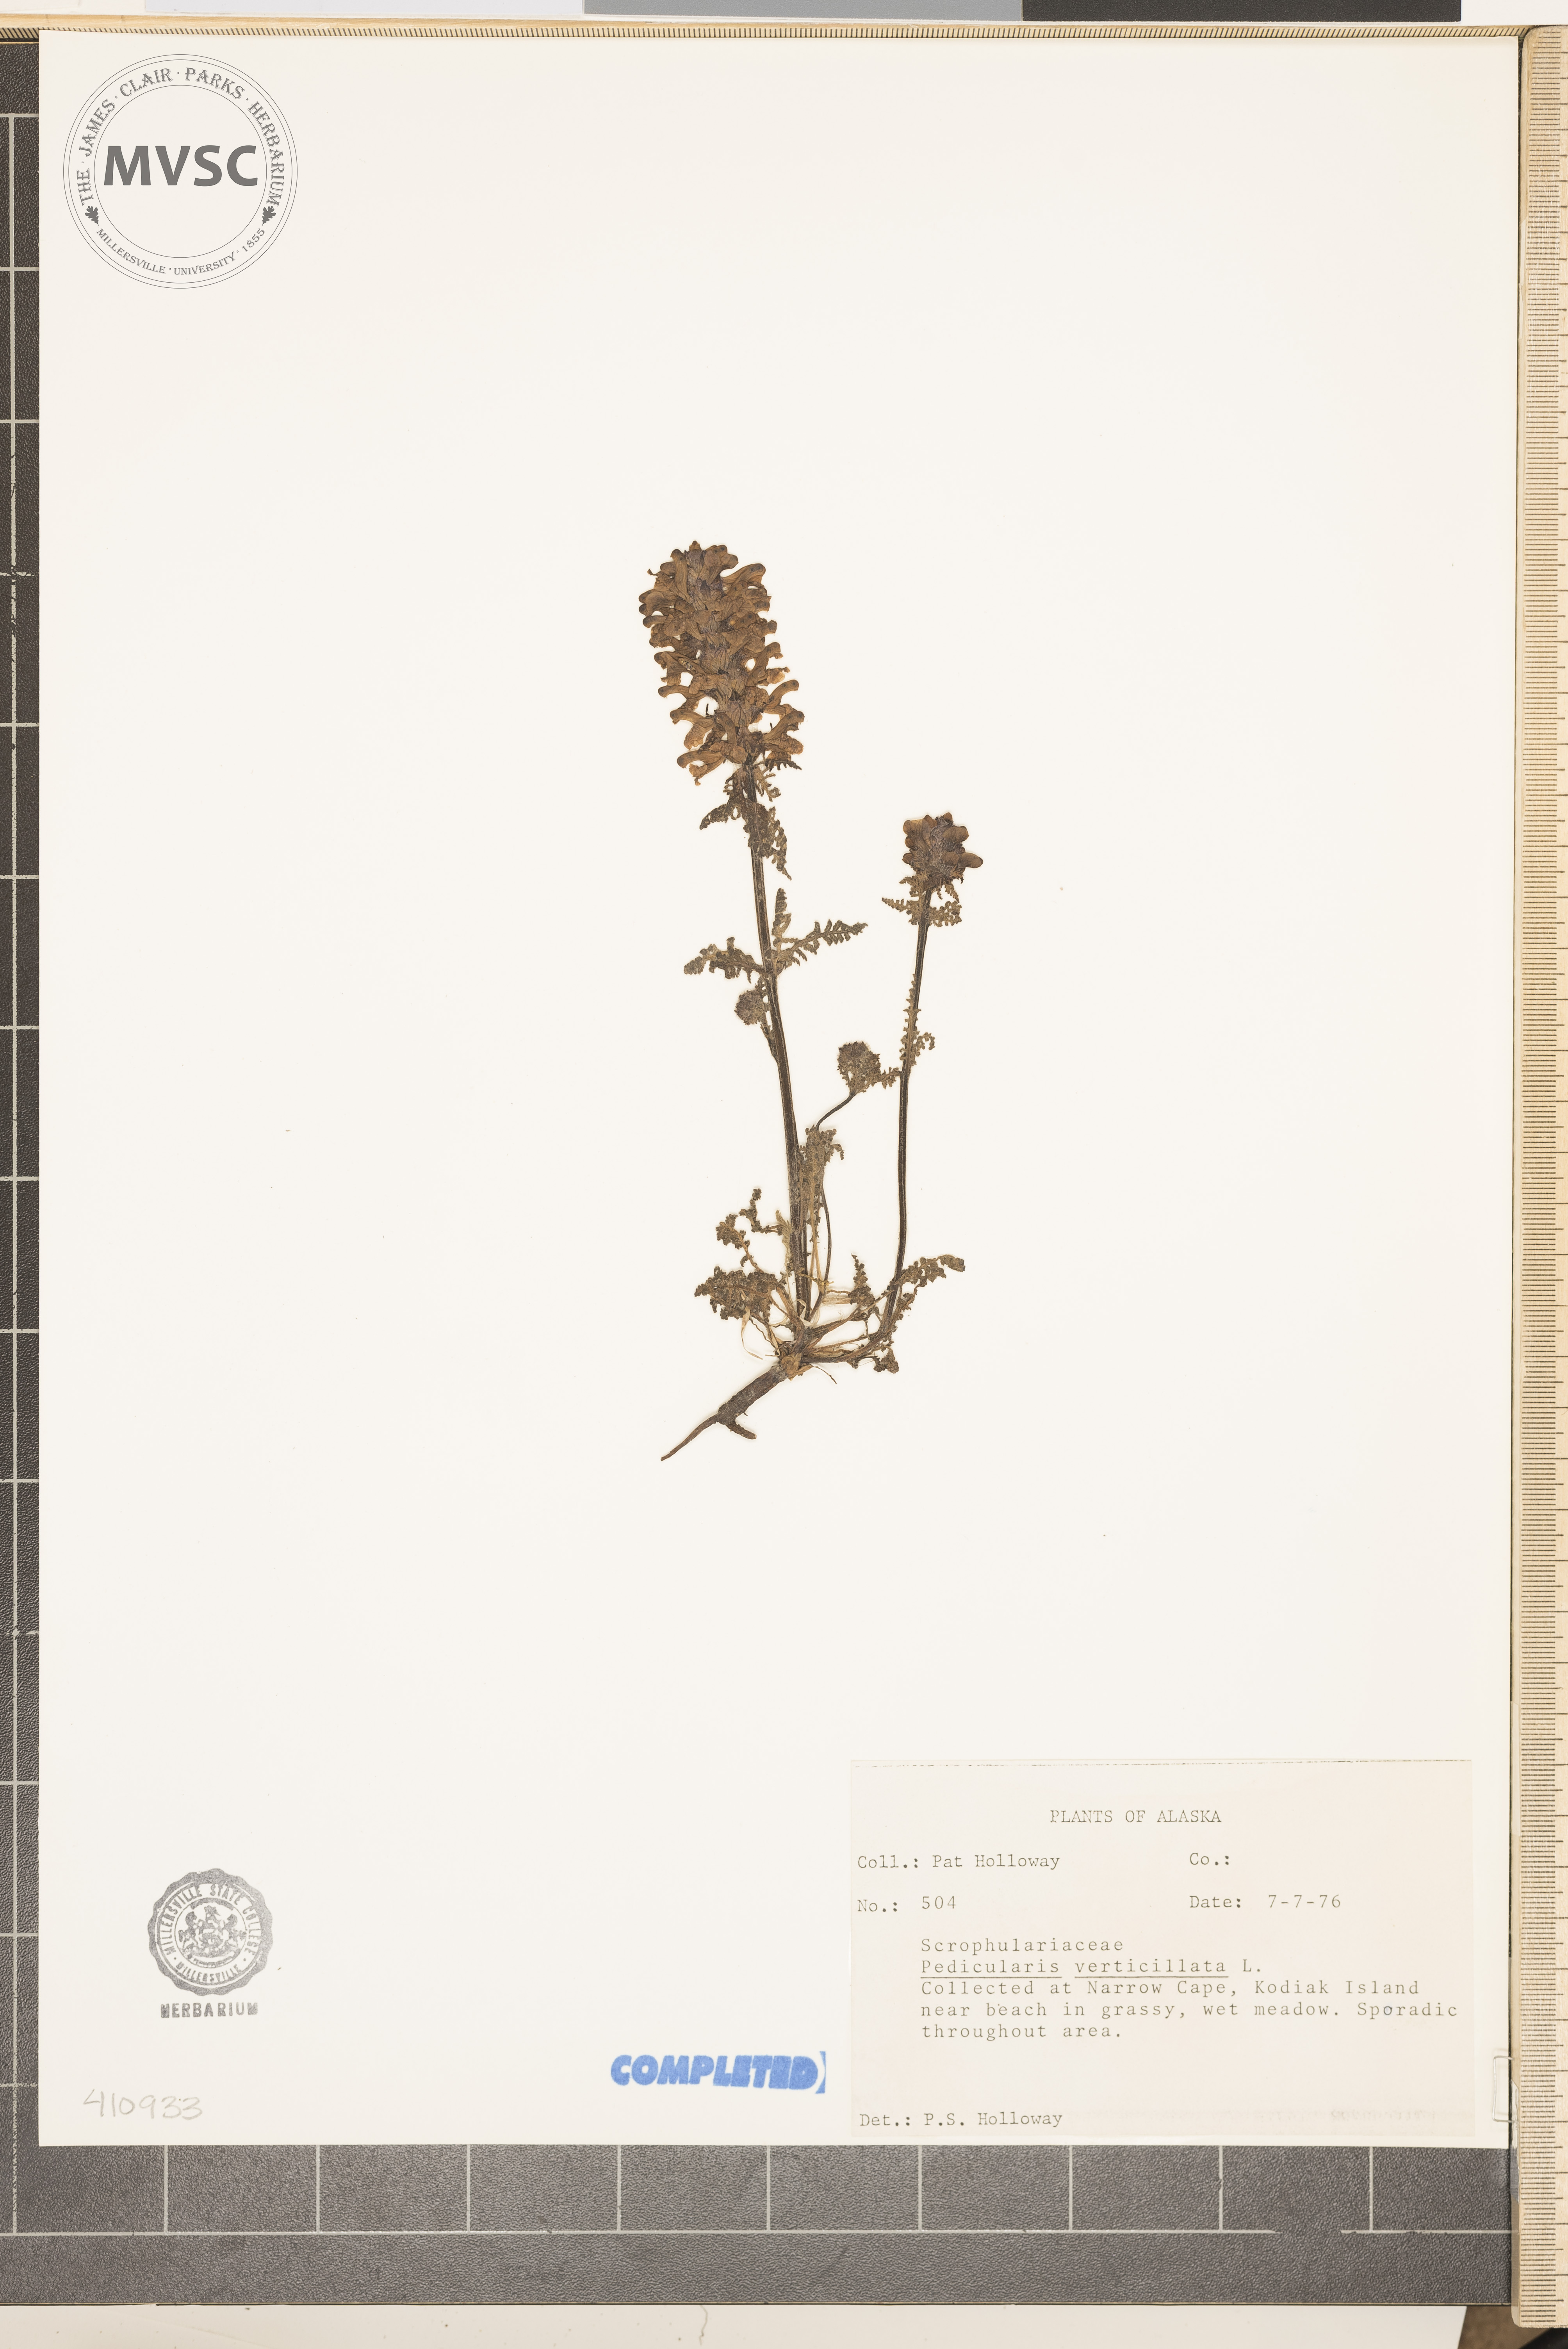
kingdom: Plantae
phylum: Tracheophyta
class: Magnoliopsida
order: Lamiales
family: Orobanchaceae
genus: Pedicularis
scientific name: Pedicularis verticillata
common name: Whorled lousewort
